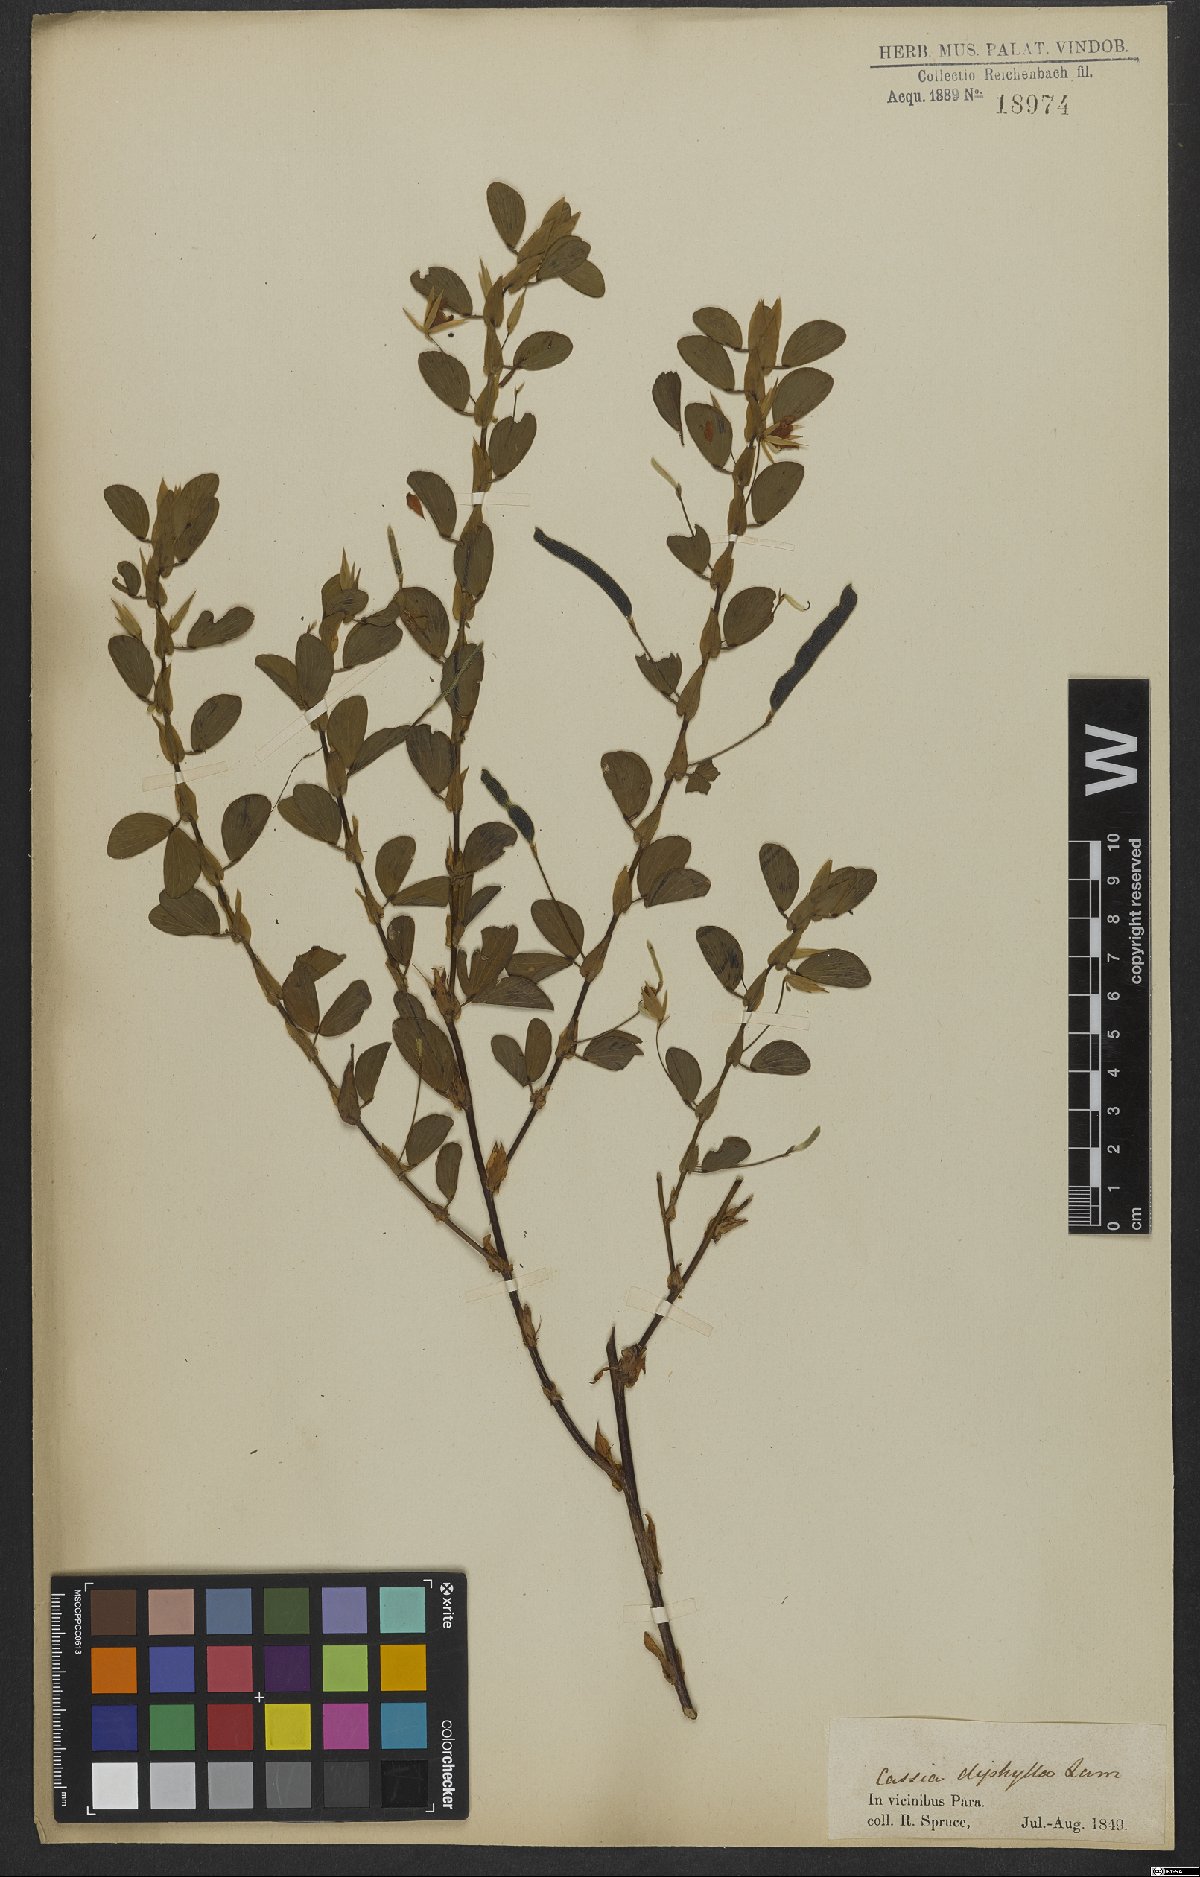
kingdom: Plantae
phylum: Tracheophyta
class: Magnoliopsida
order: Fabales
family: Fabaceae
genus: Chamaecrista
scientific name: Chamaecrista diphylla
